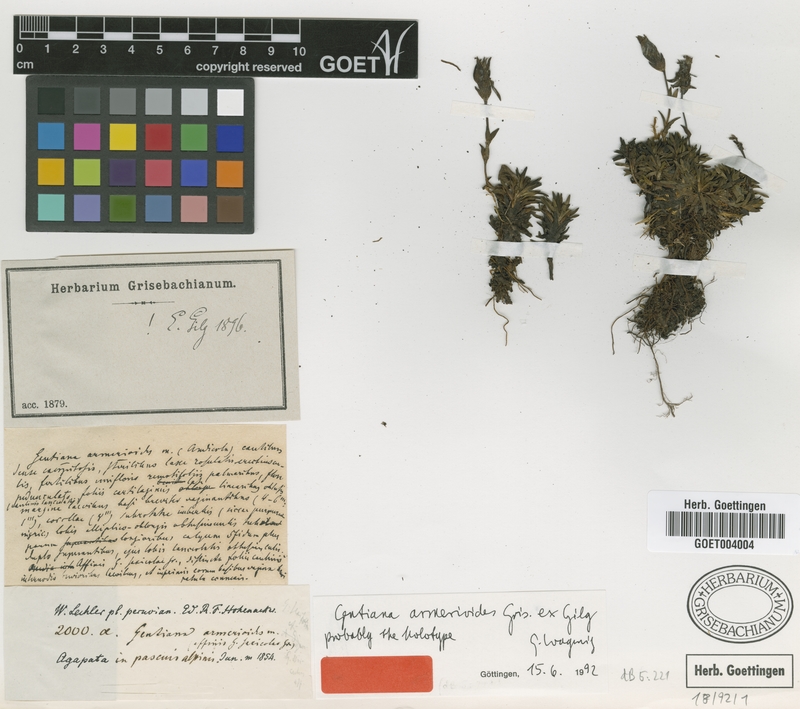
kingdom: Plantae
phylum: Tracheophyta
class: Magnoliopsida
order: Gentianales
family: Gentianaceae
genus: Gentianella
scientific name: Gentianella armerioides
